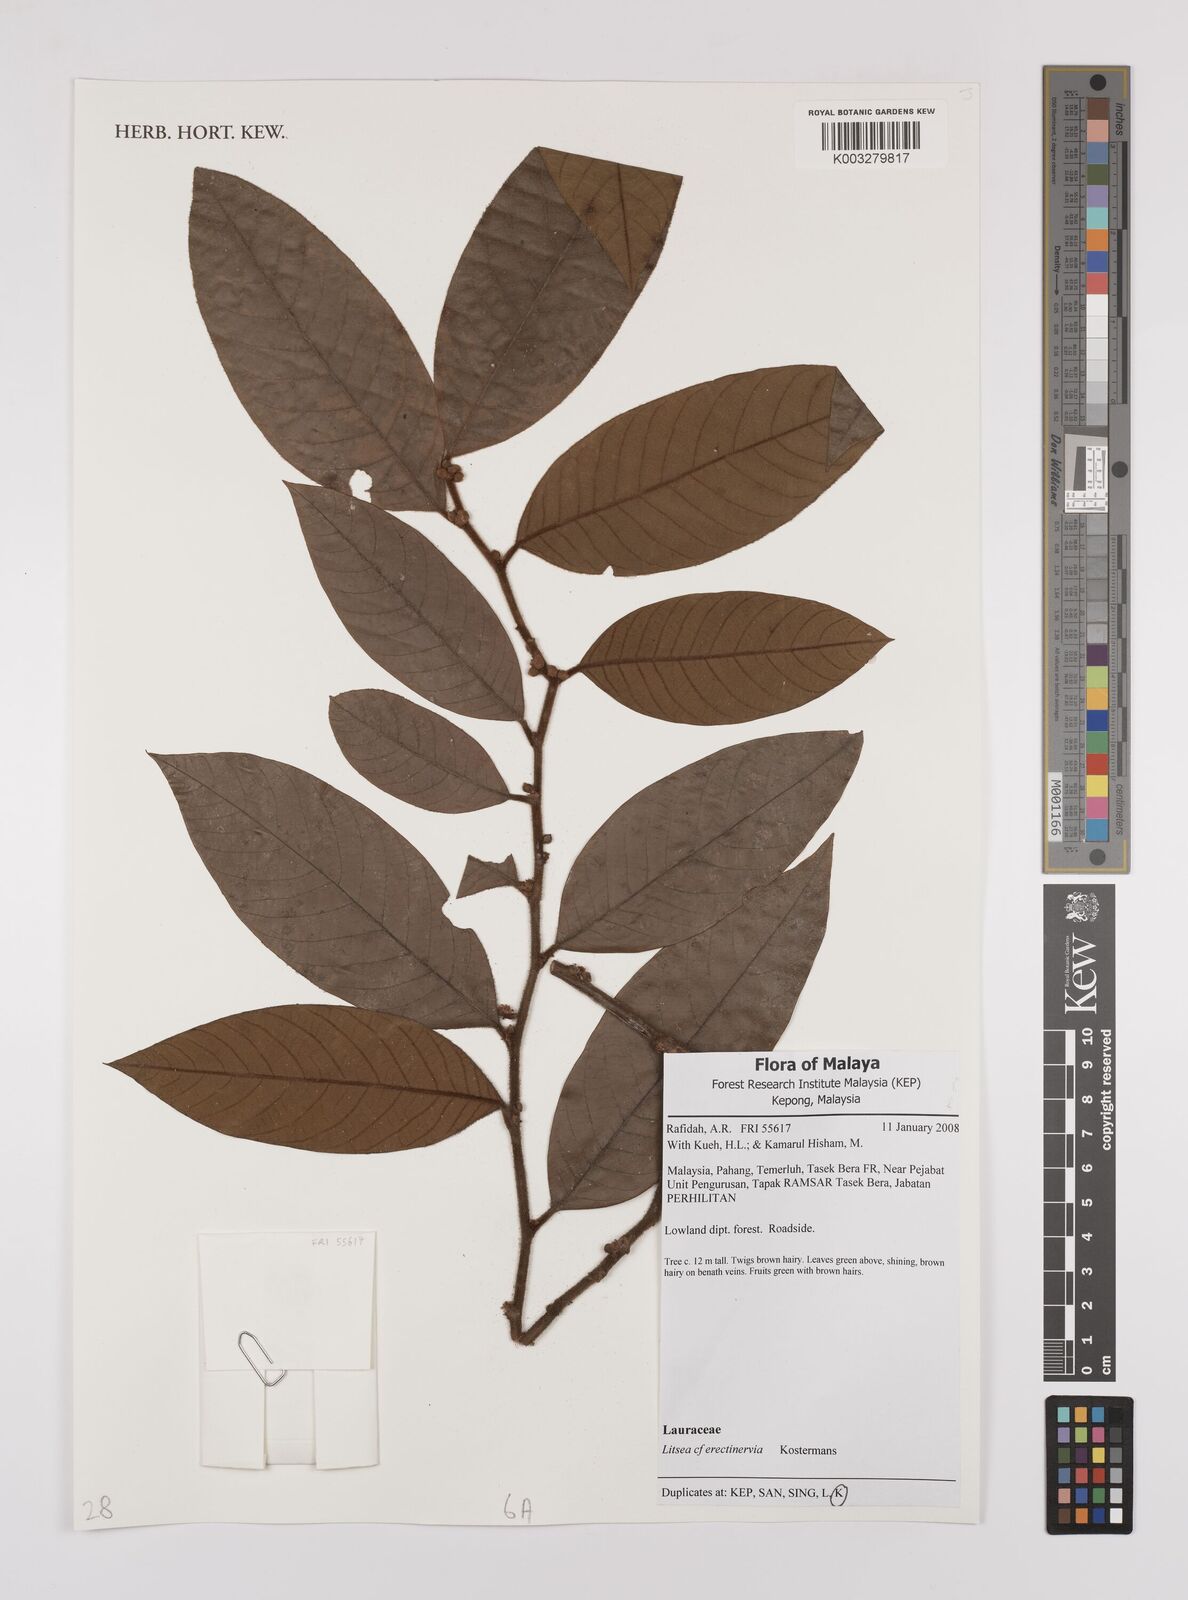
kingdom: Plantae
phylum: Tracheophyta
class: Magnoliopsida
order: Laurales
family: Lauraceae
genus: Litsea
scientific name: Litsea erectinervia
